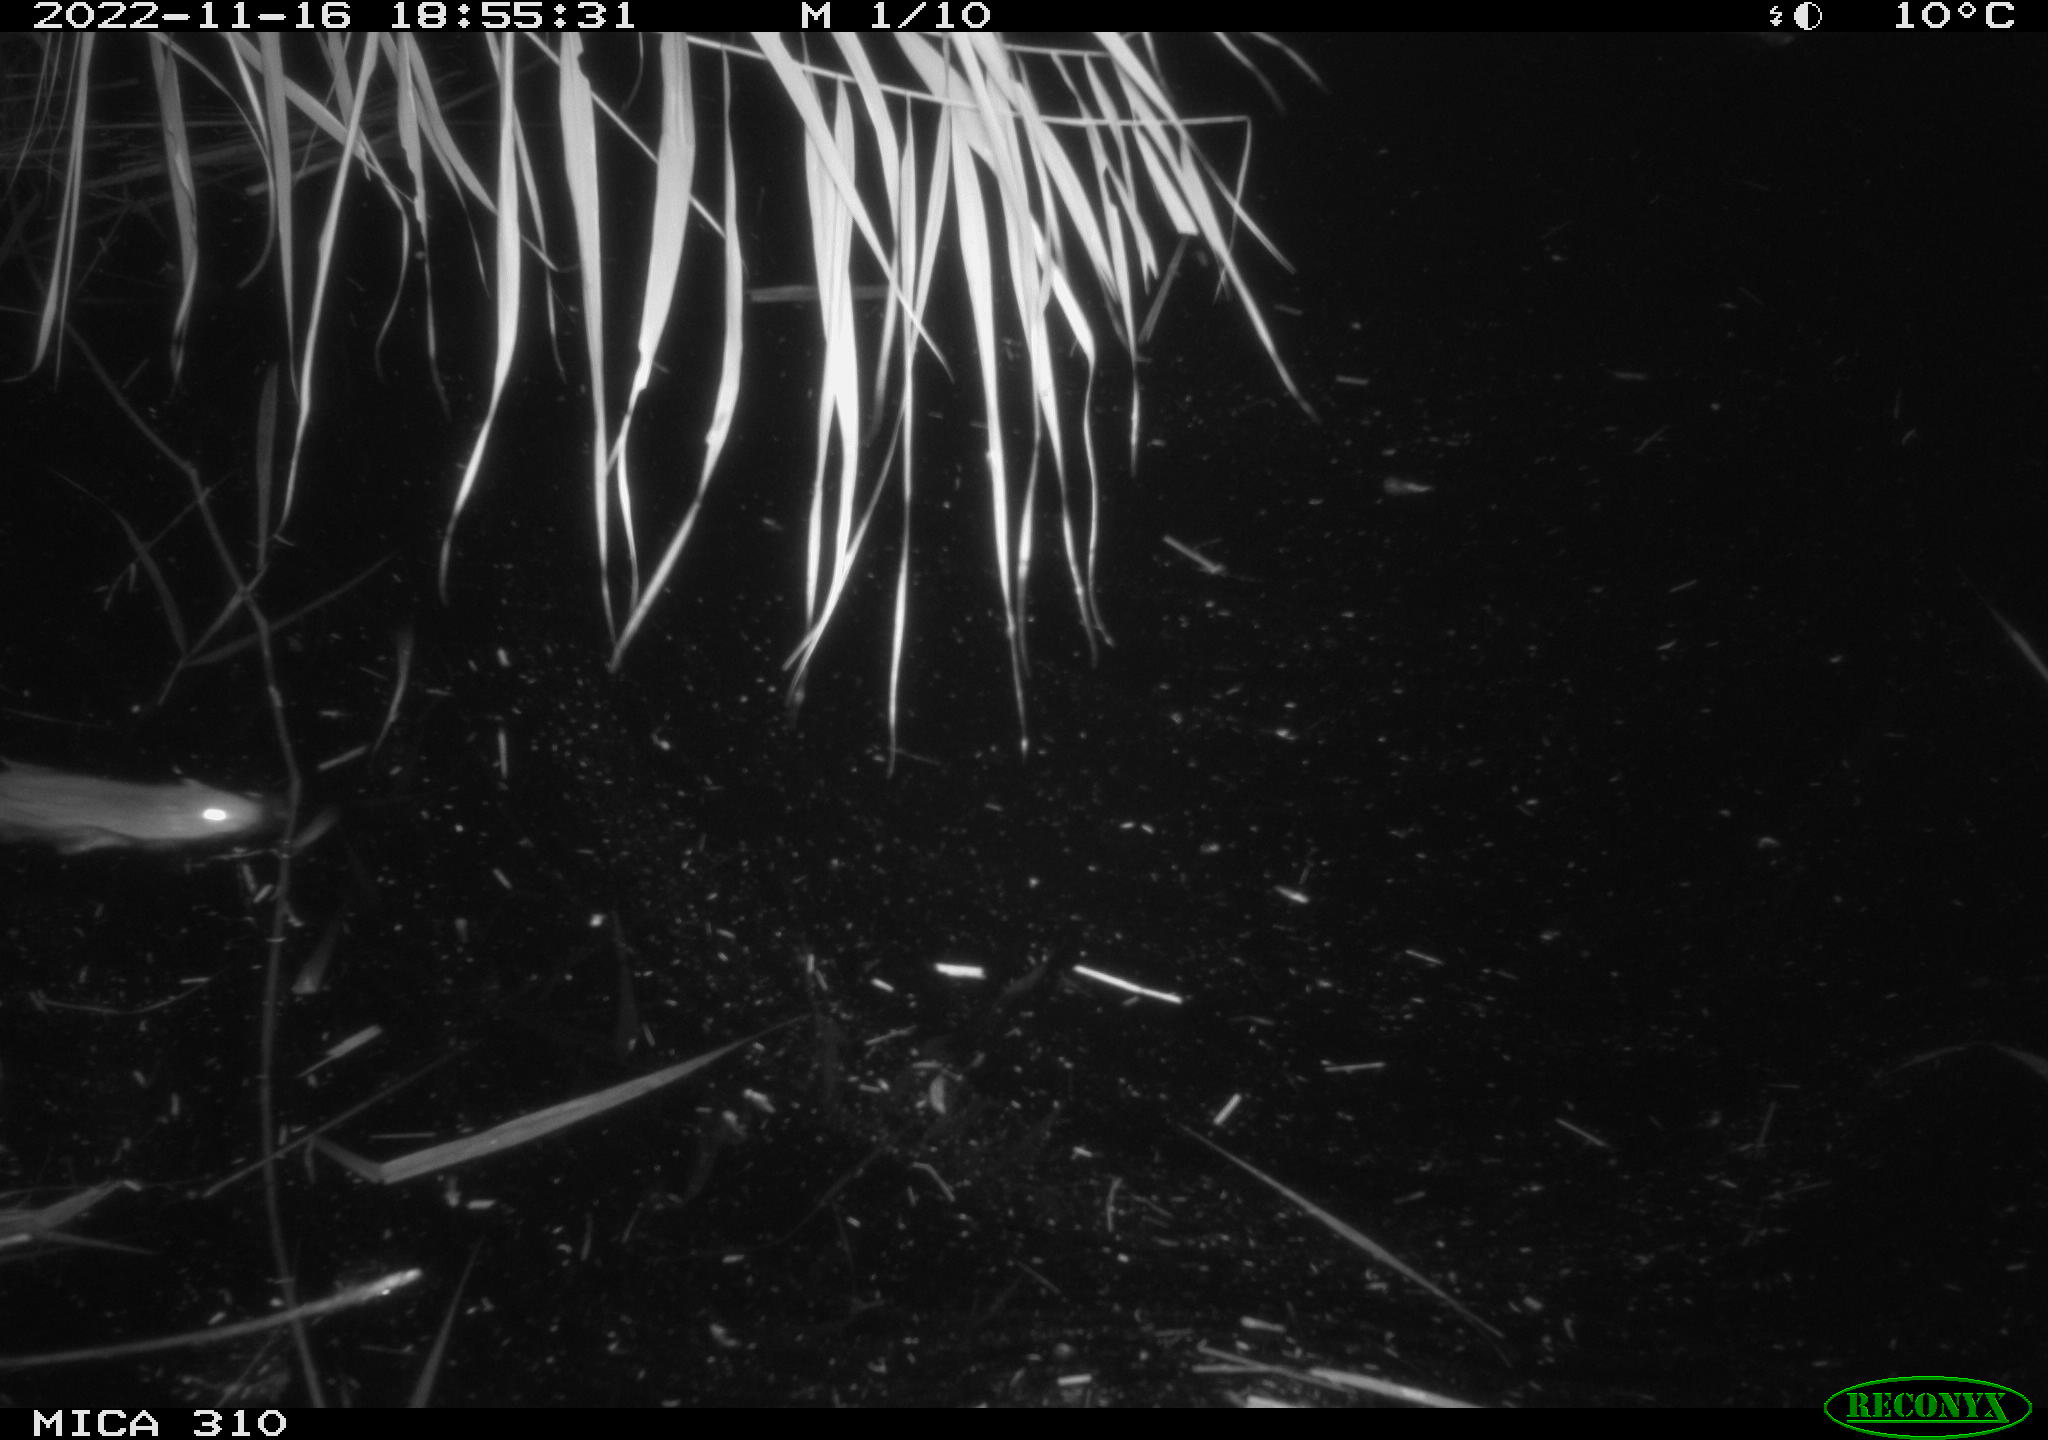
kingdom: Animalia
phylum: Chordata
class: Mammalia
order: Rodentia
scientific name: Rodentia
